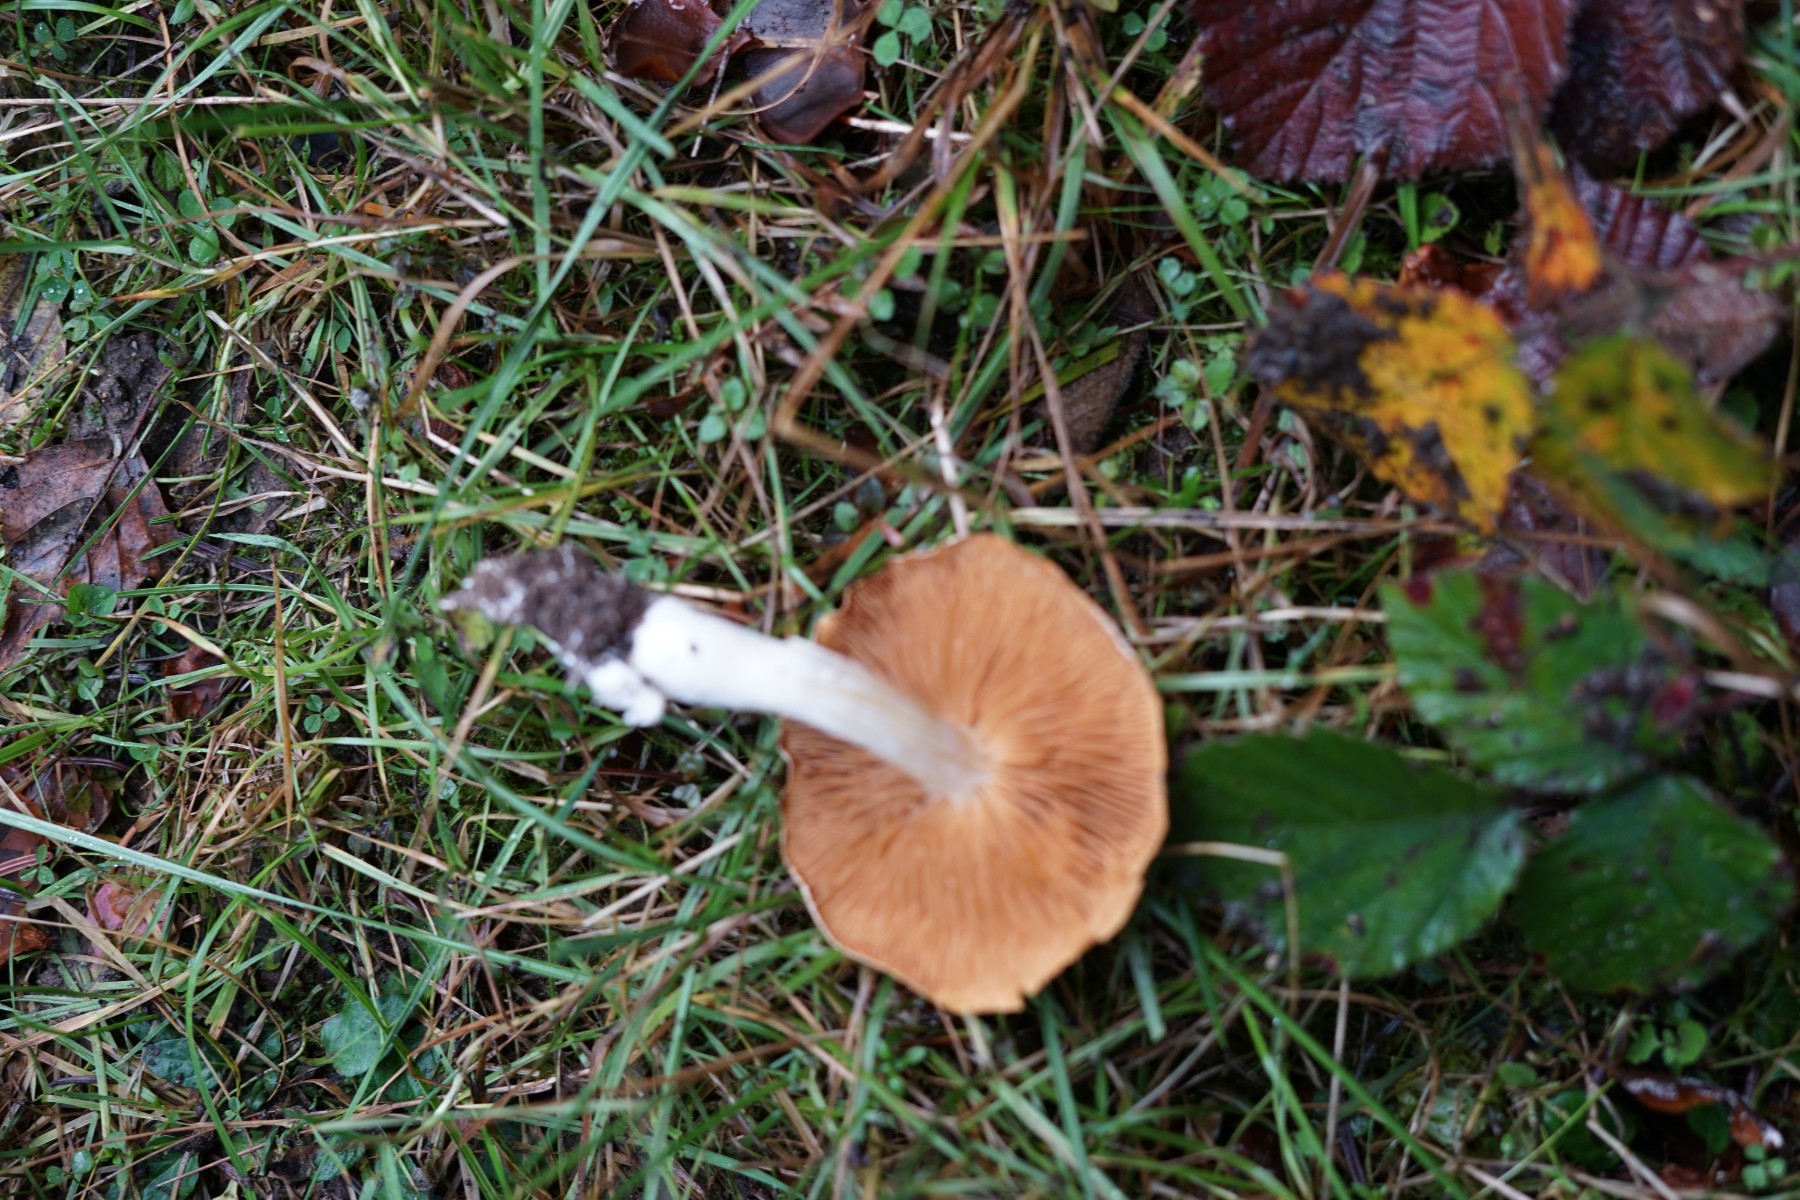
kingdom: Fungi
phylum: Basidiomycota
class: Agaricomycetes
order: Agaricales
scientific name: Agaricales
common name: champignonordenen
